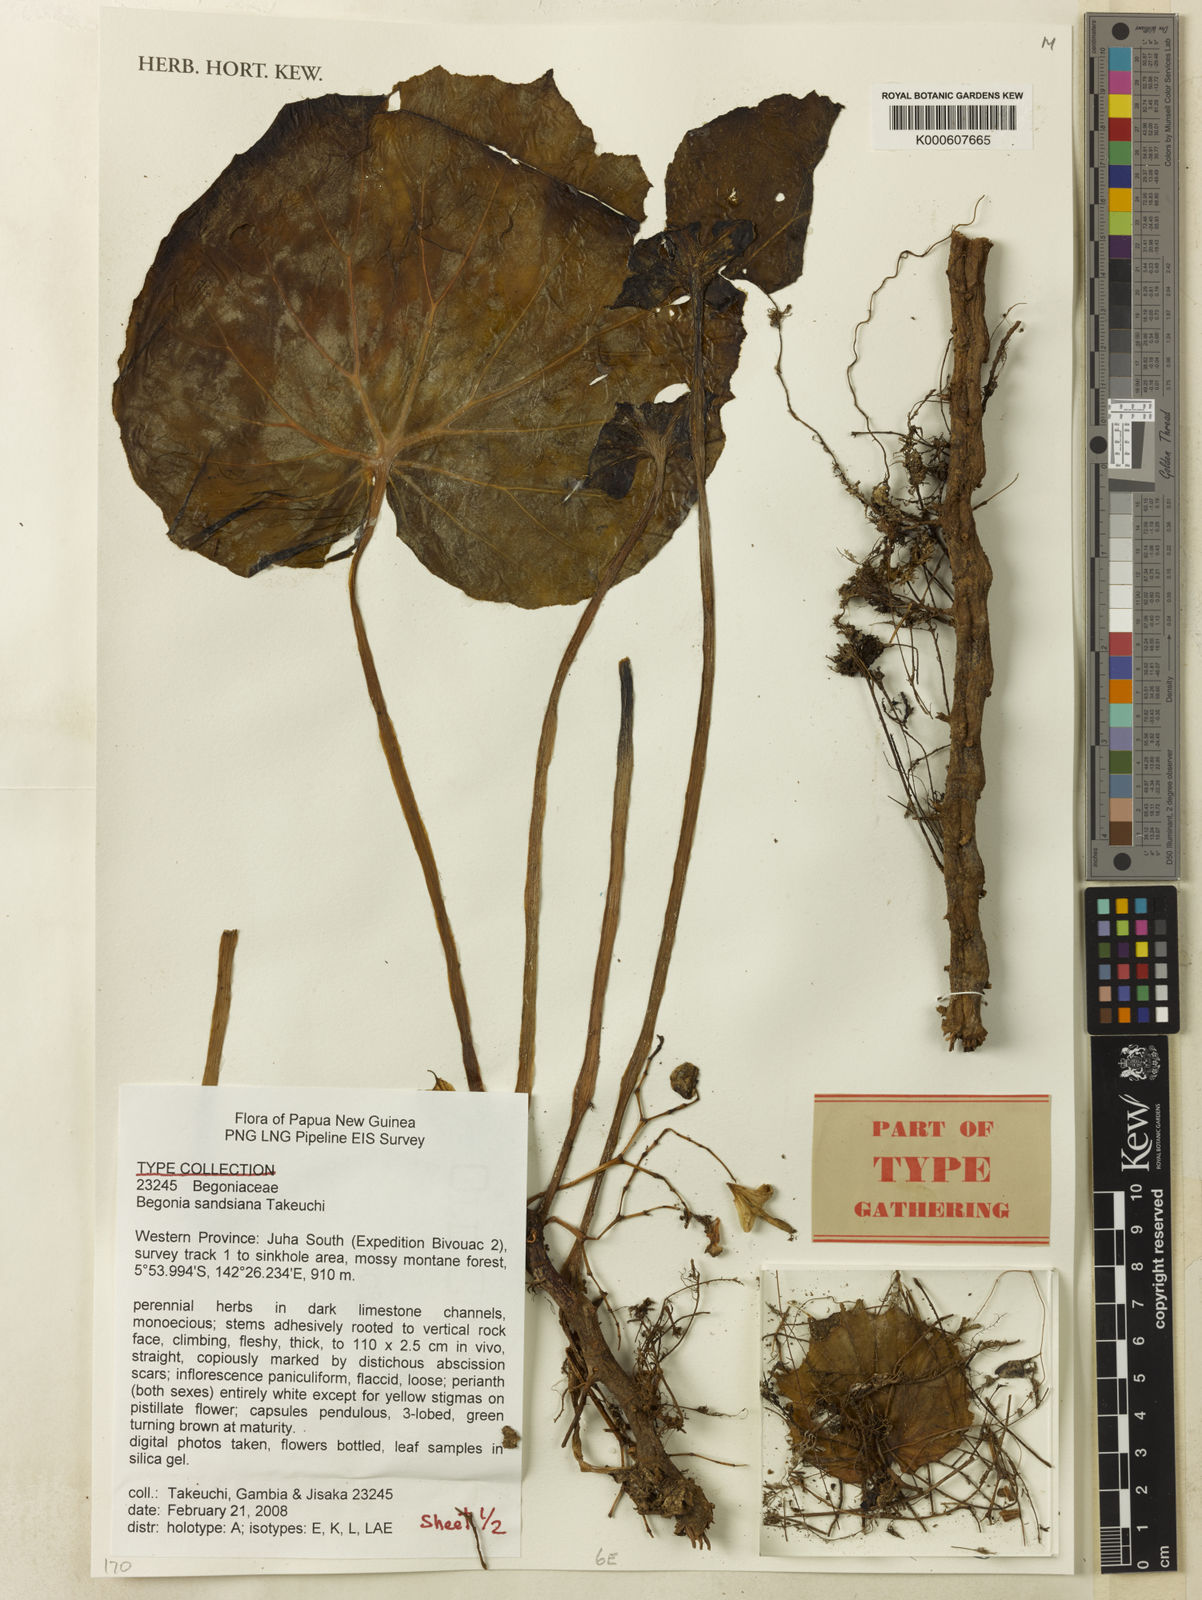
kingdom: Plantae
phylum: Tracheophyta
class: Magnoliopsida
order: Cucurbitales
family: Begoniaceae
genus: Begonia
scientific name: Begonia sandsiana
